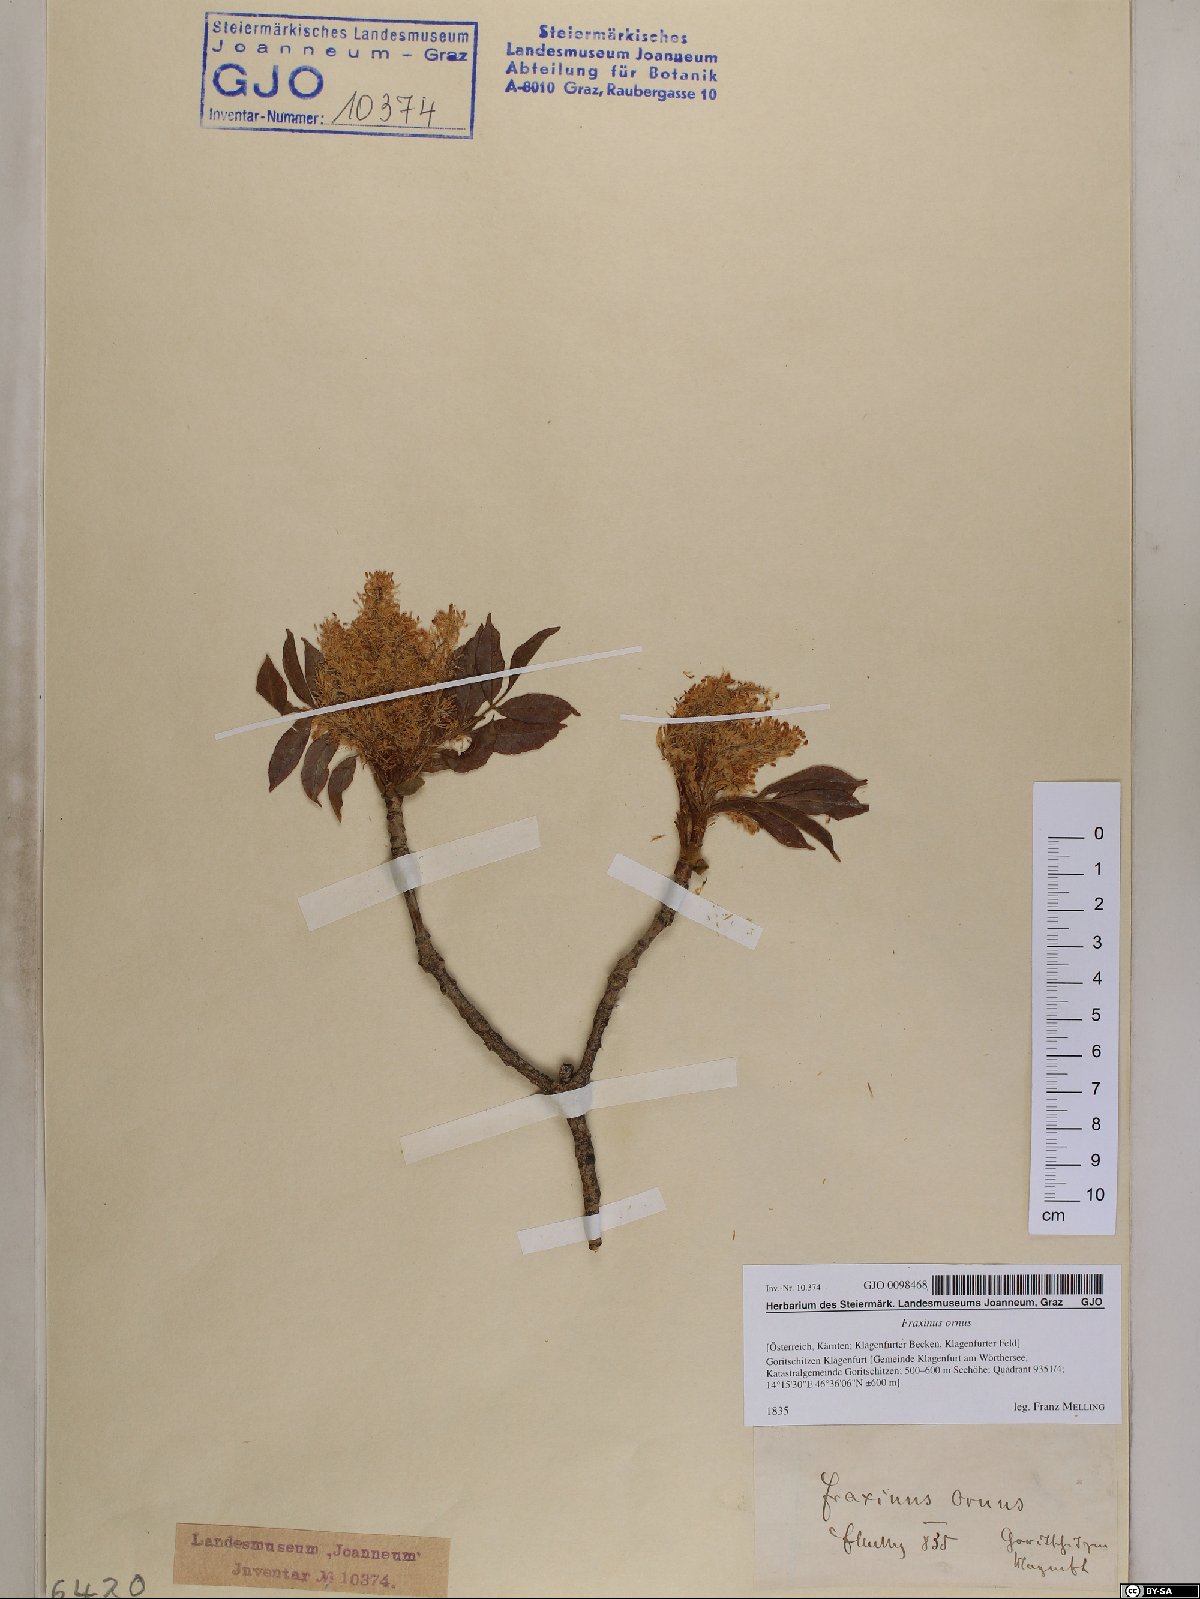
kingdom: Plantae
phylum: Tracheophyta
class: Magnoliopsida
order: Lamiales
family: Oleaceae
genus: Fraxinus
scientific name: Fraxinus ornus
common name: Manna ash
